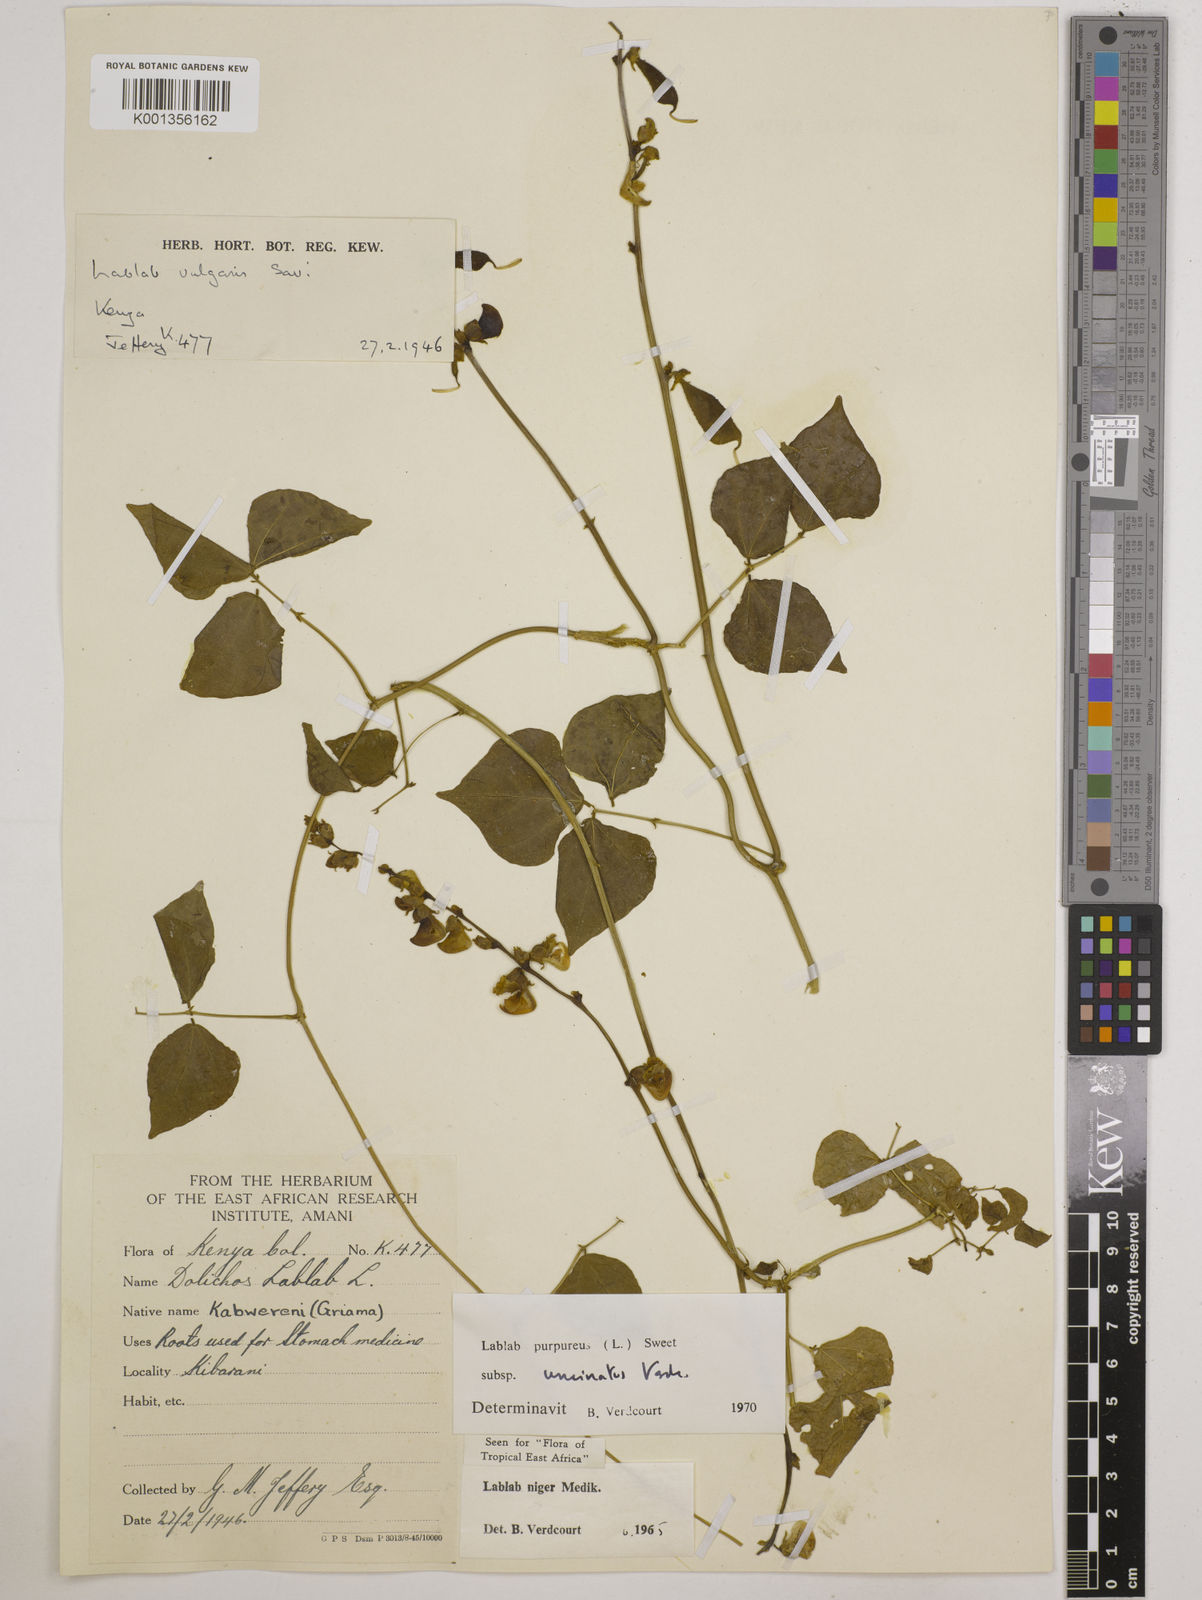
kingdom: Plantae
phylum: Tracheophyta
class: Magnoliopsida
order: Fabales
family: Fabaceae
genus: Lablab
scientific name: Lablab purpureus
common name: Lablab-bean
